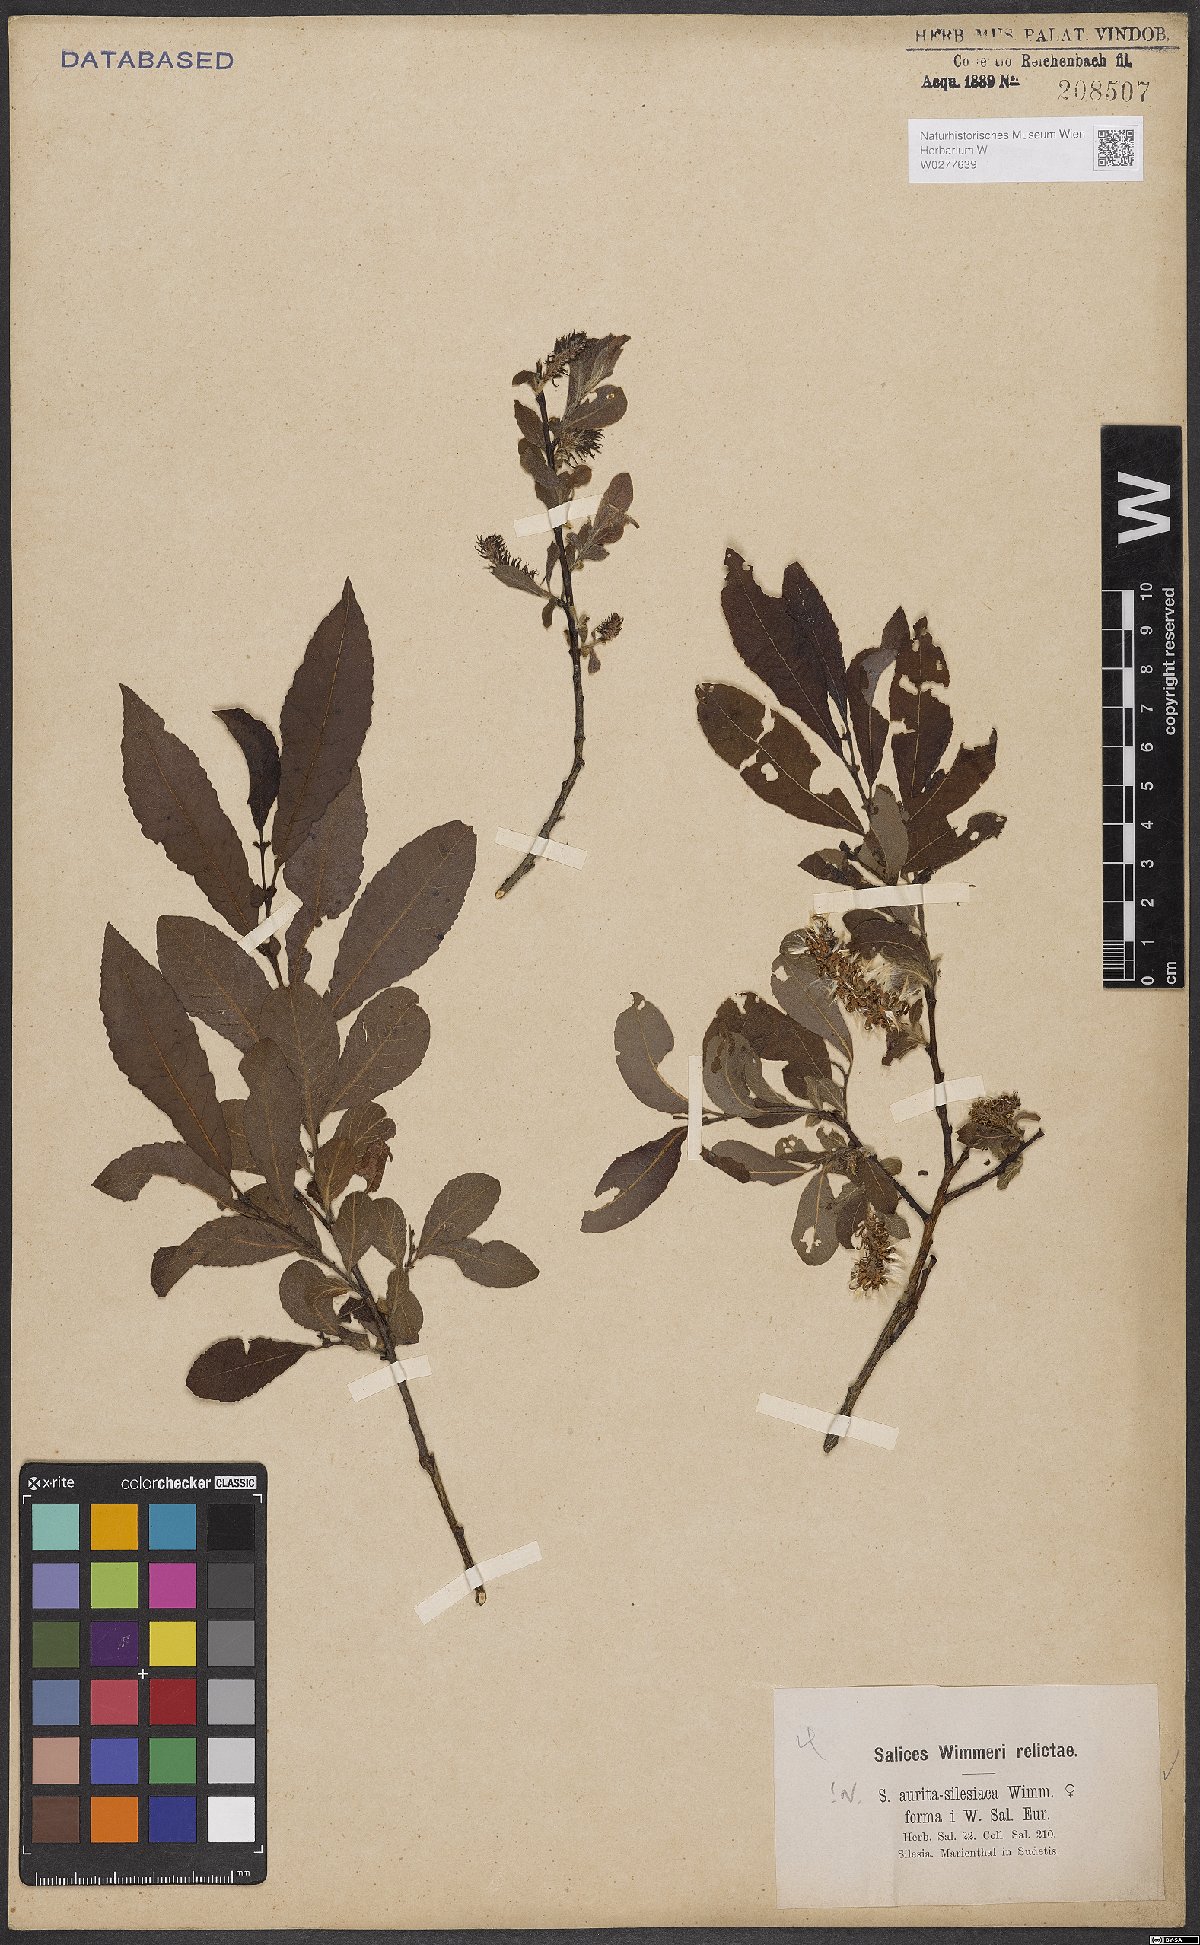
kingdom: Plantae
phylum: Tracheophyta
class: Magnoliopsida
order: Malpighiales
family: Salicaceae
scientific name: Salicaceae
